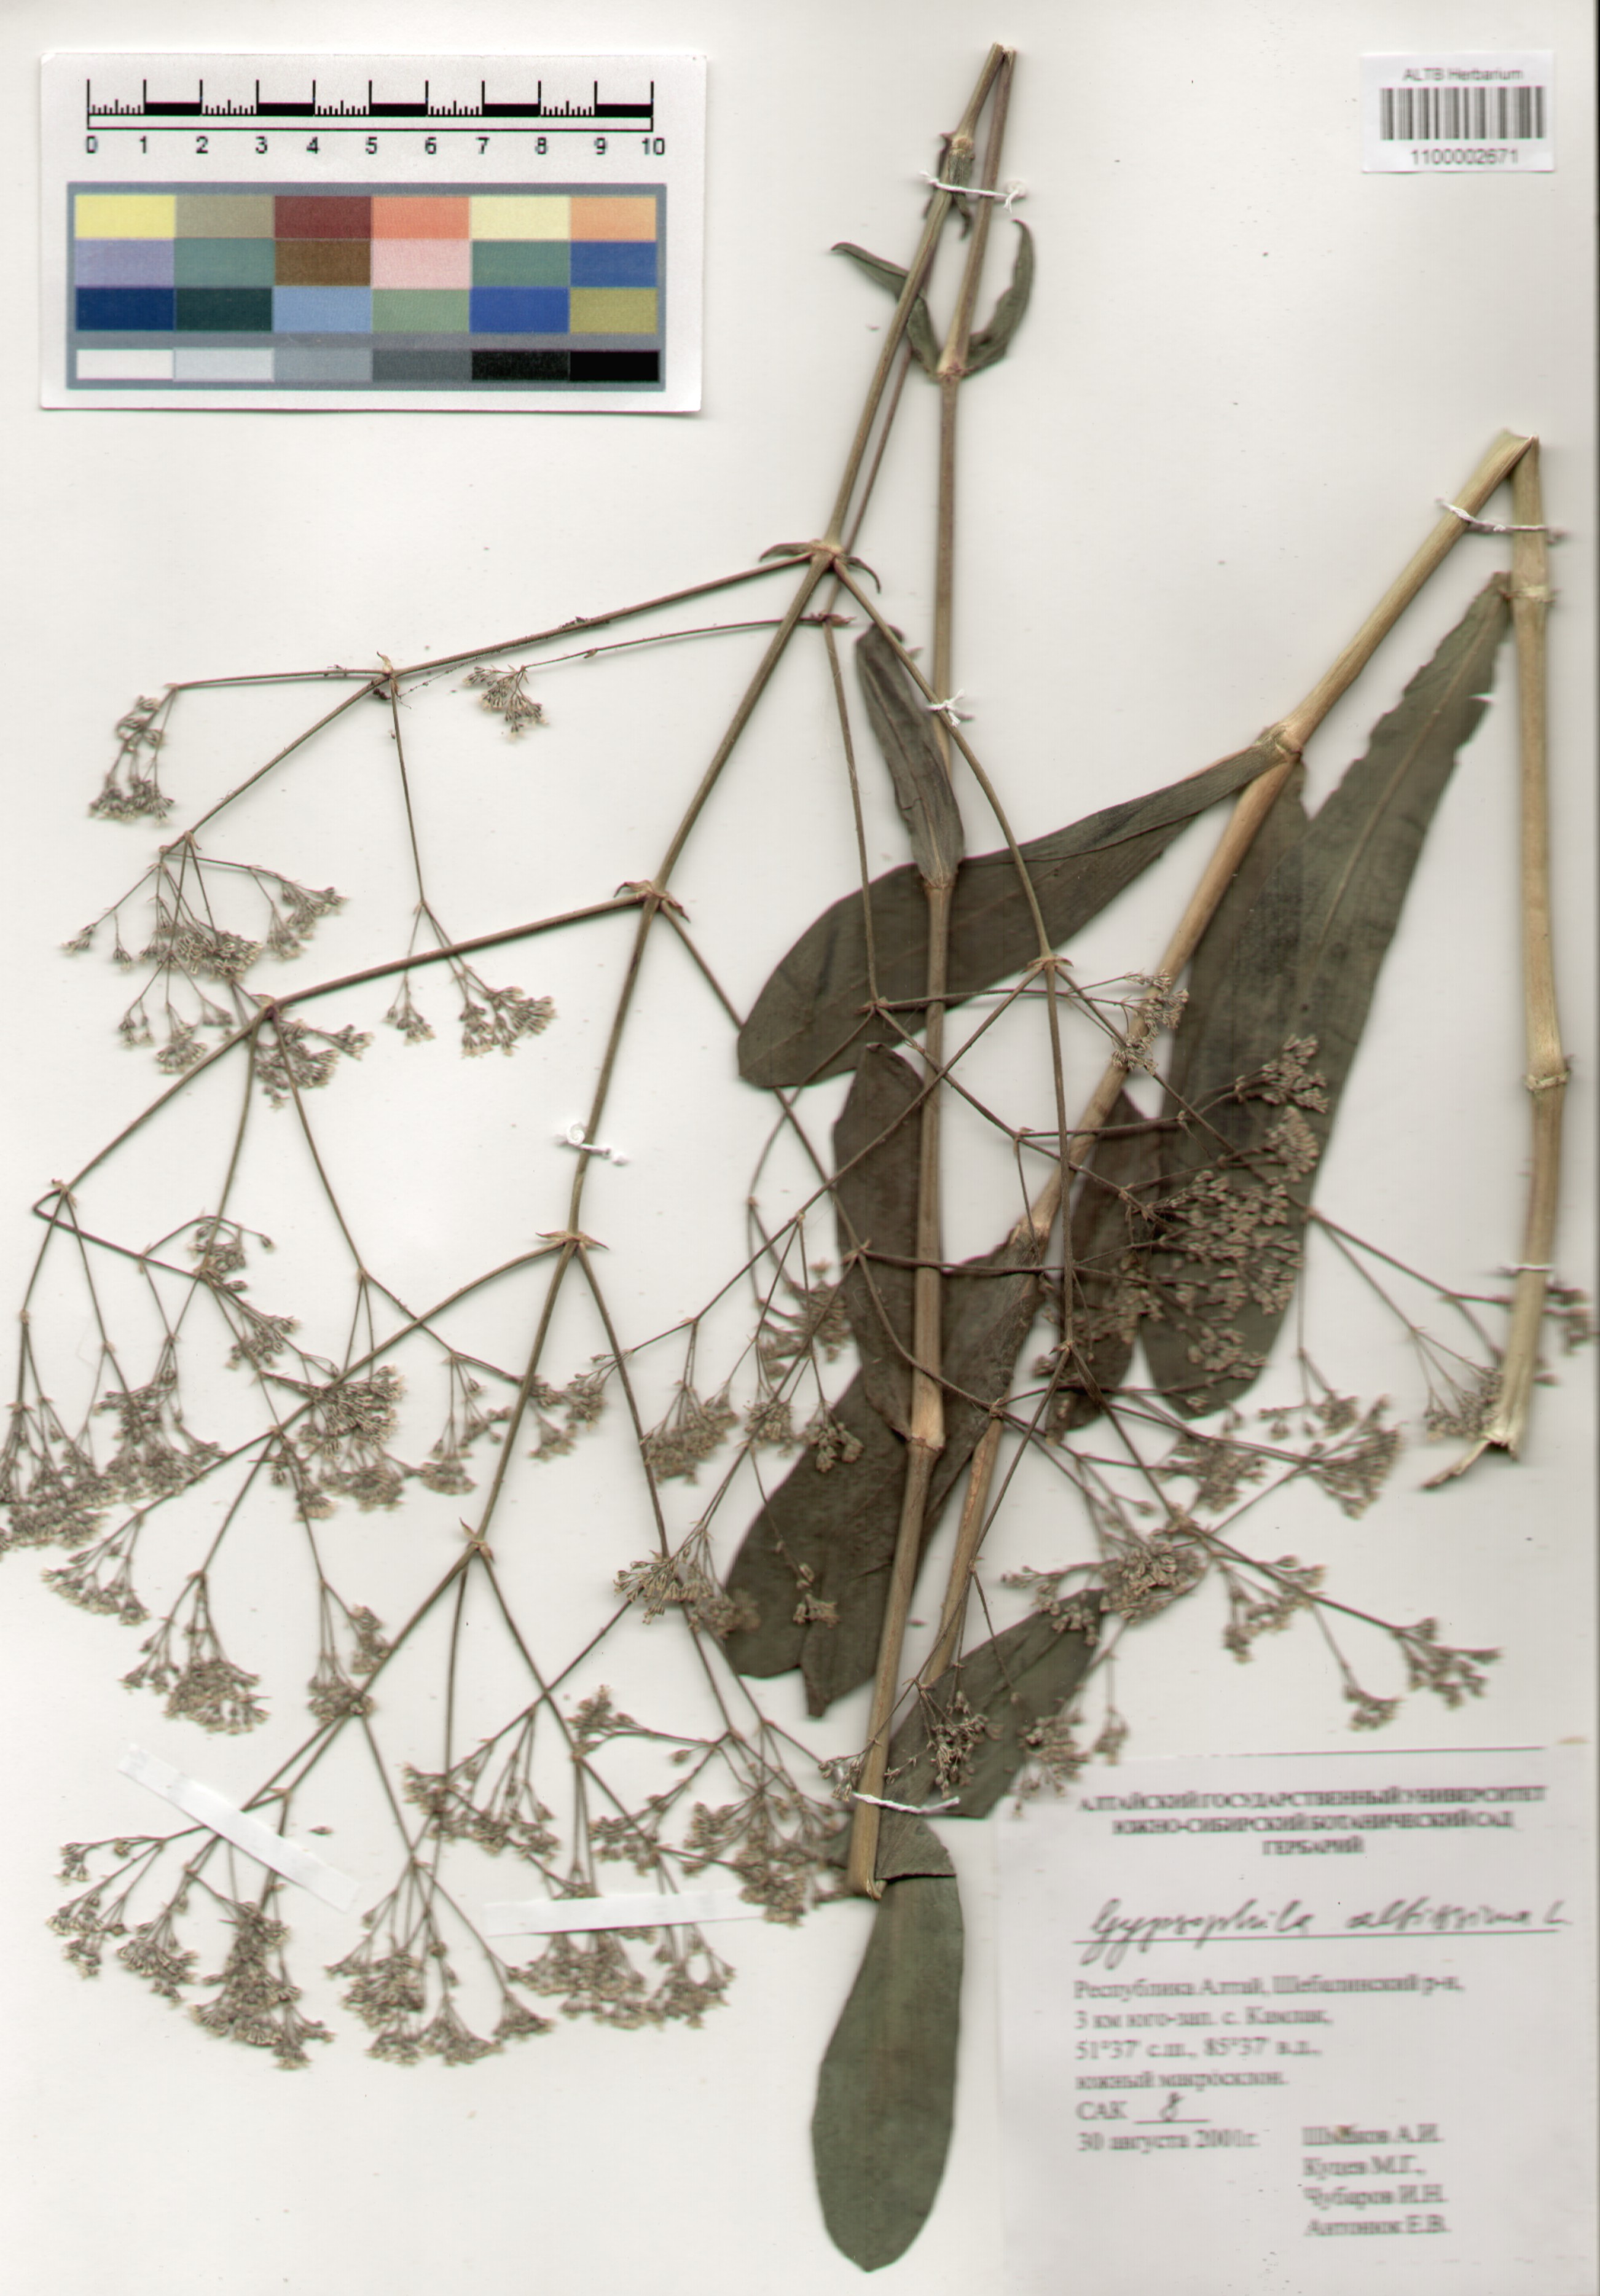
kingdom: Plantae
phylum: Tracheophyta
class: Magnoliopsida
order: Caryophyllales
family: Caryophyllaceae
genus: Gypsophila
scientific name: Gypsophila altissima
